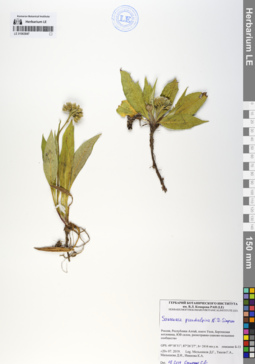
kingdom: Plantae
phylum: Tracheophyta
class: Magnoliopsida
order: Asterales
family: Asteraceae
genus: Saussurea
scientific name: Saussurea pseudoalpina
